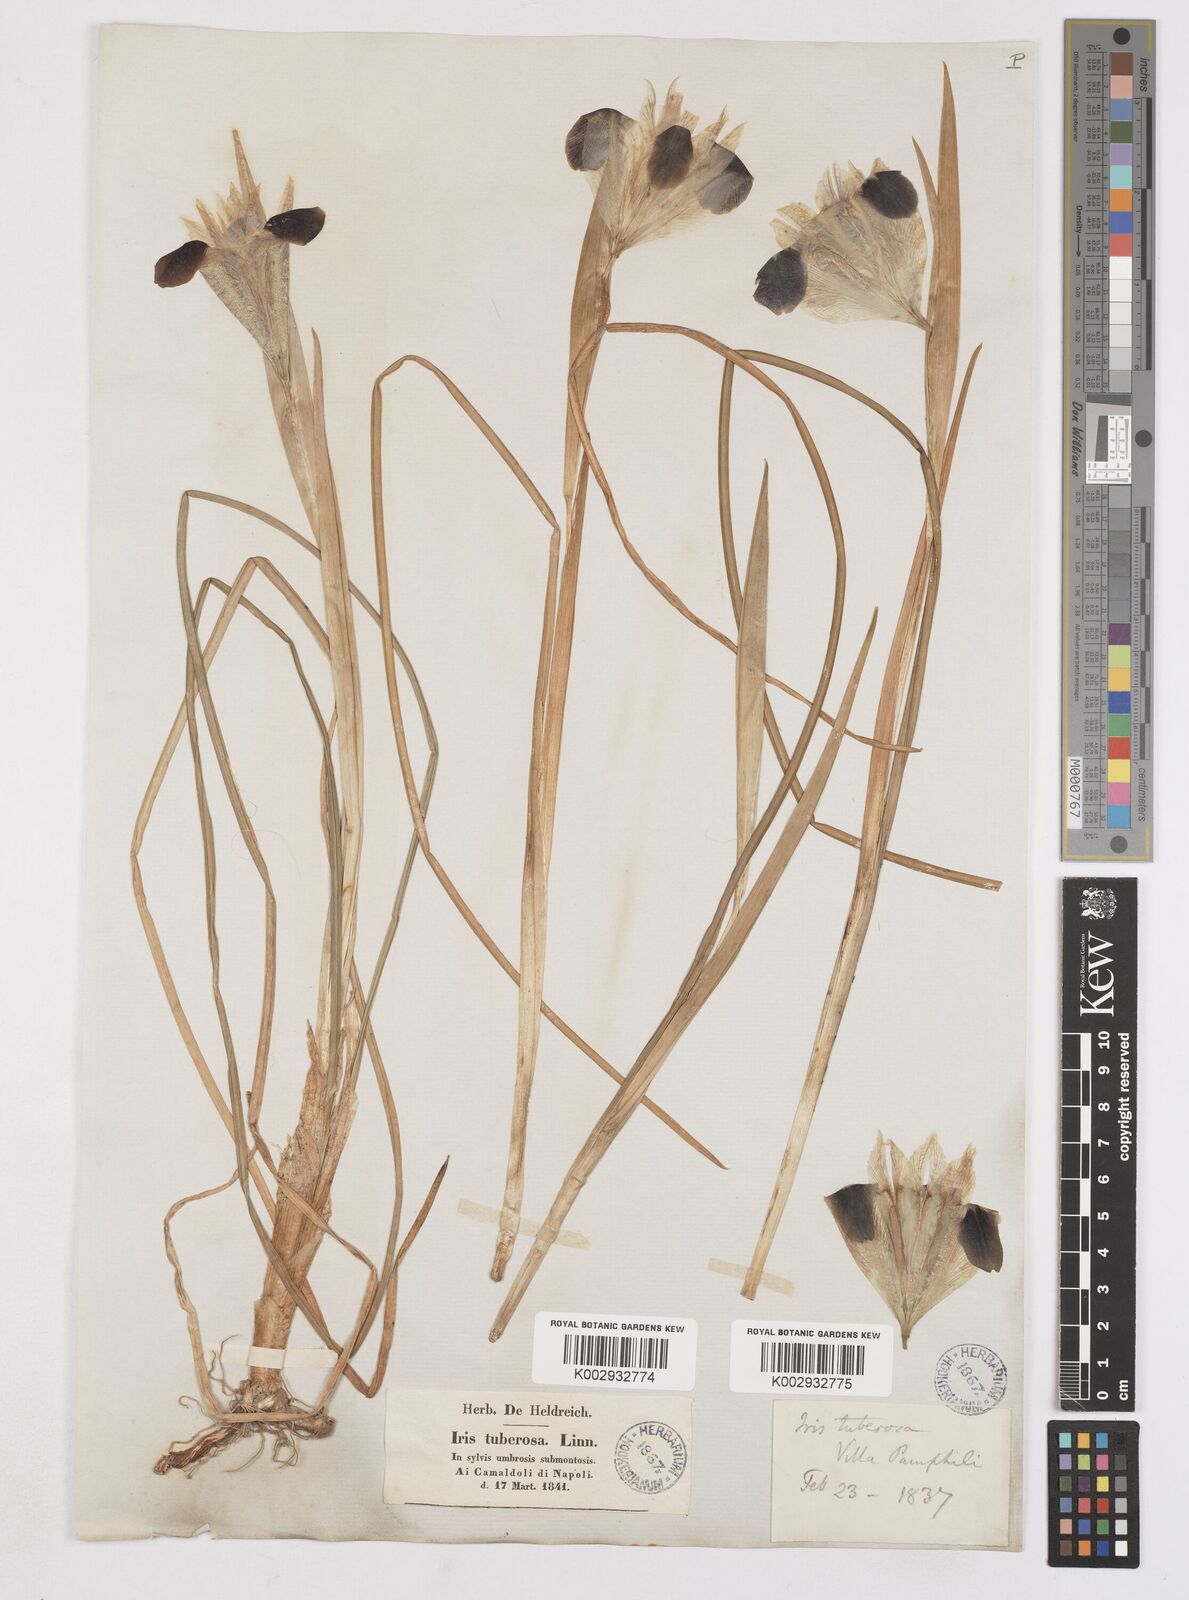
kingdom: Plantae
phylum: Tracheophyta
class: Liliopsida
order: Asparagales
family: Iridaceae
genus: Iris
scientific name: Iris tuberosa
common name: Snake's-head iris
